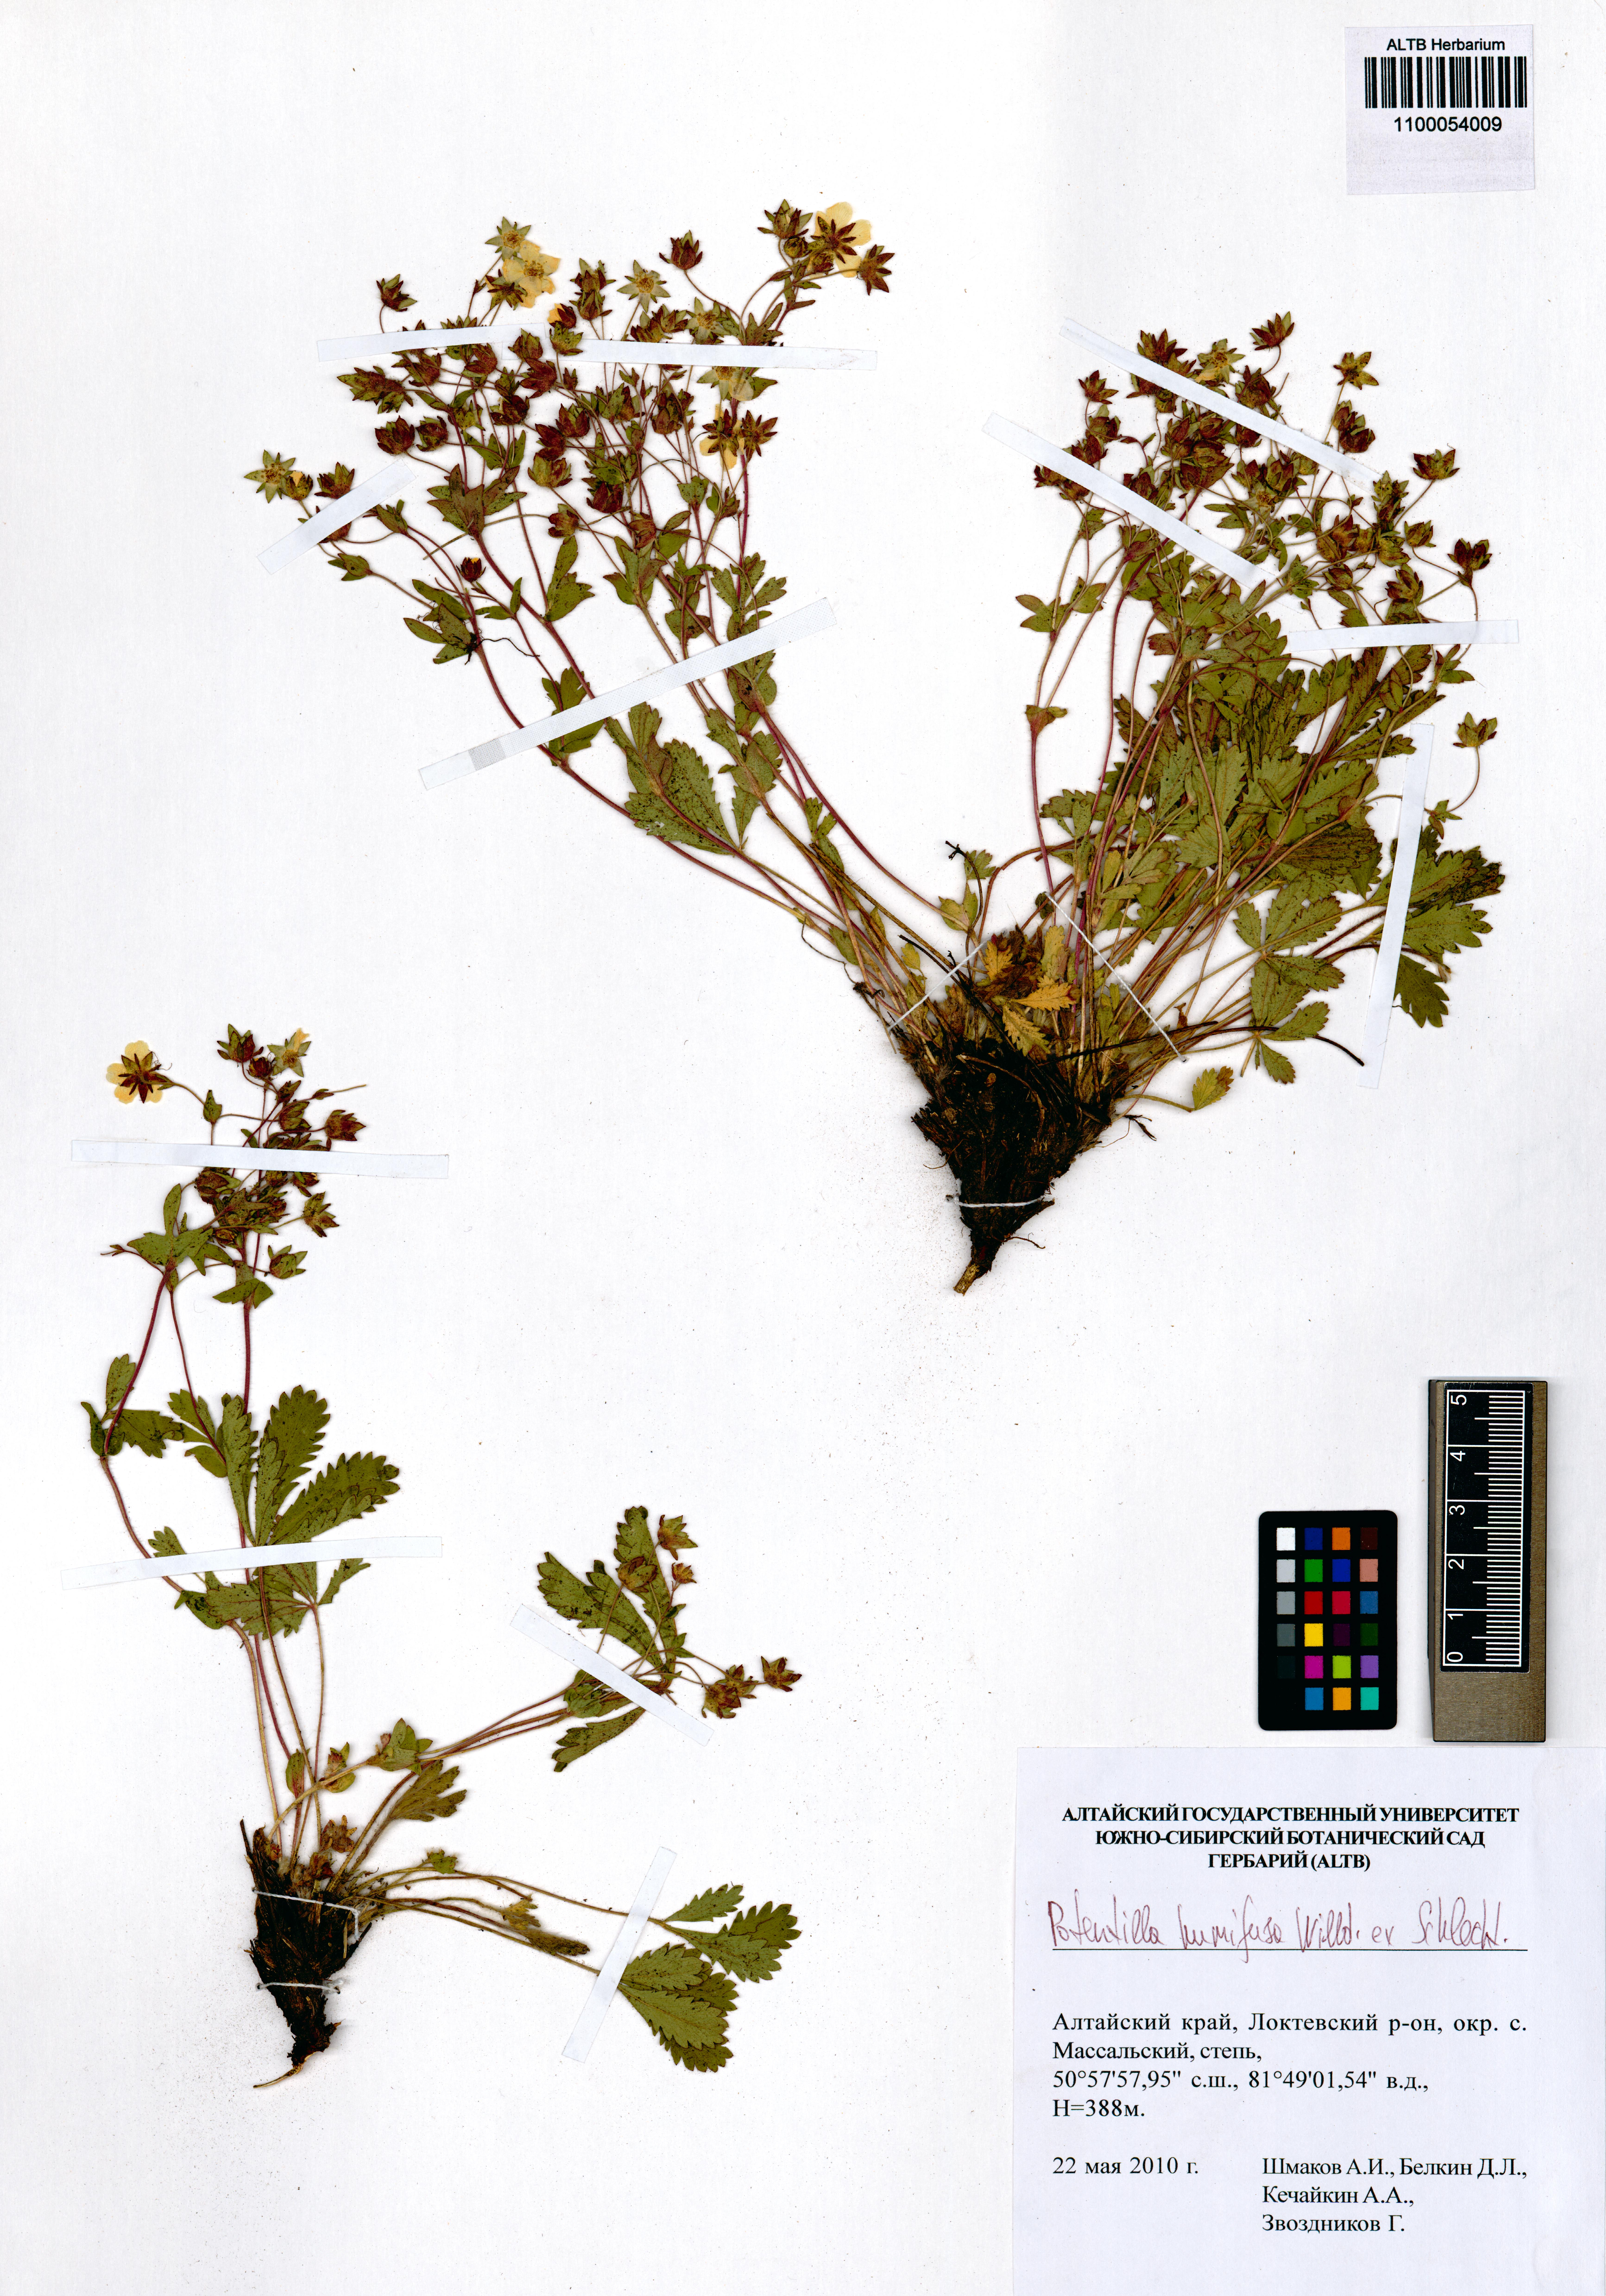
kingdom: Plantae
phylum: Tracheophyta
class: Magnoliopsida
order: Rosales
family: Rosaceae
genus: Potentilla
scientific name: Potentilla humifusa
